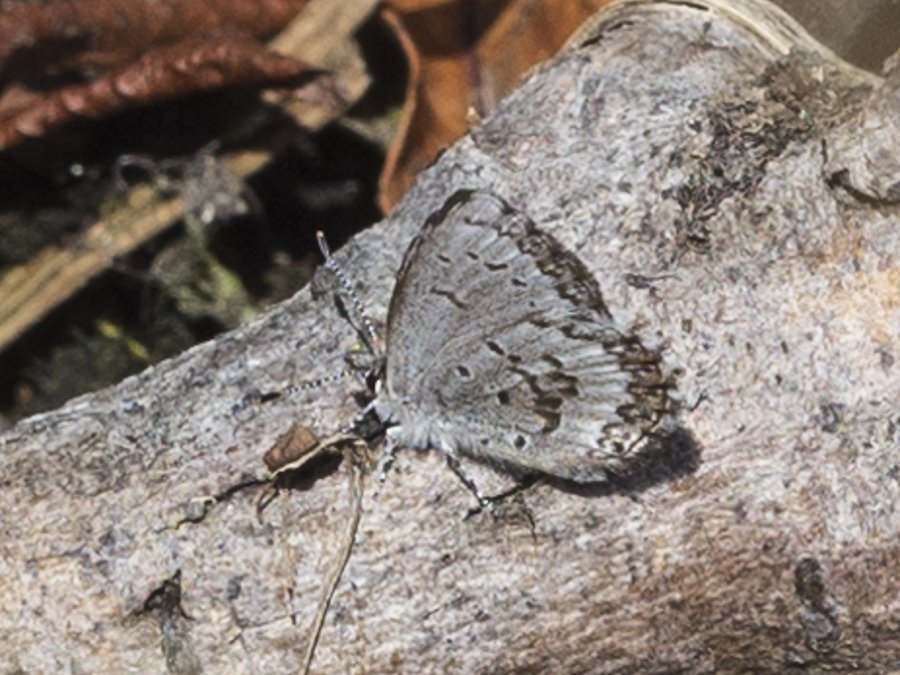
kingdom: Animalia
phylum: Arthropoda
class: Insecta
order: Lepidoptera
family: Lycaenidae
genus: Celastrina
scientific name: Celastrina lucia
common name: Northern Spring Azure
